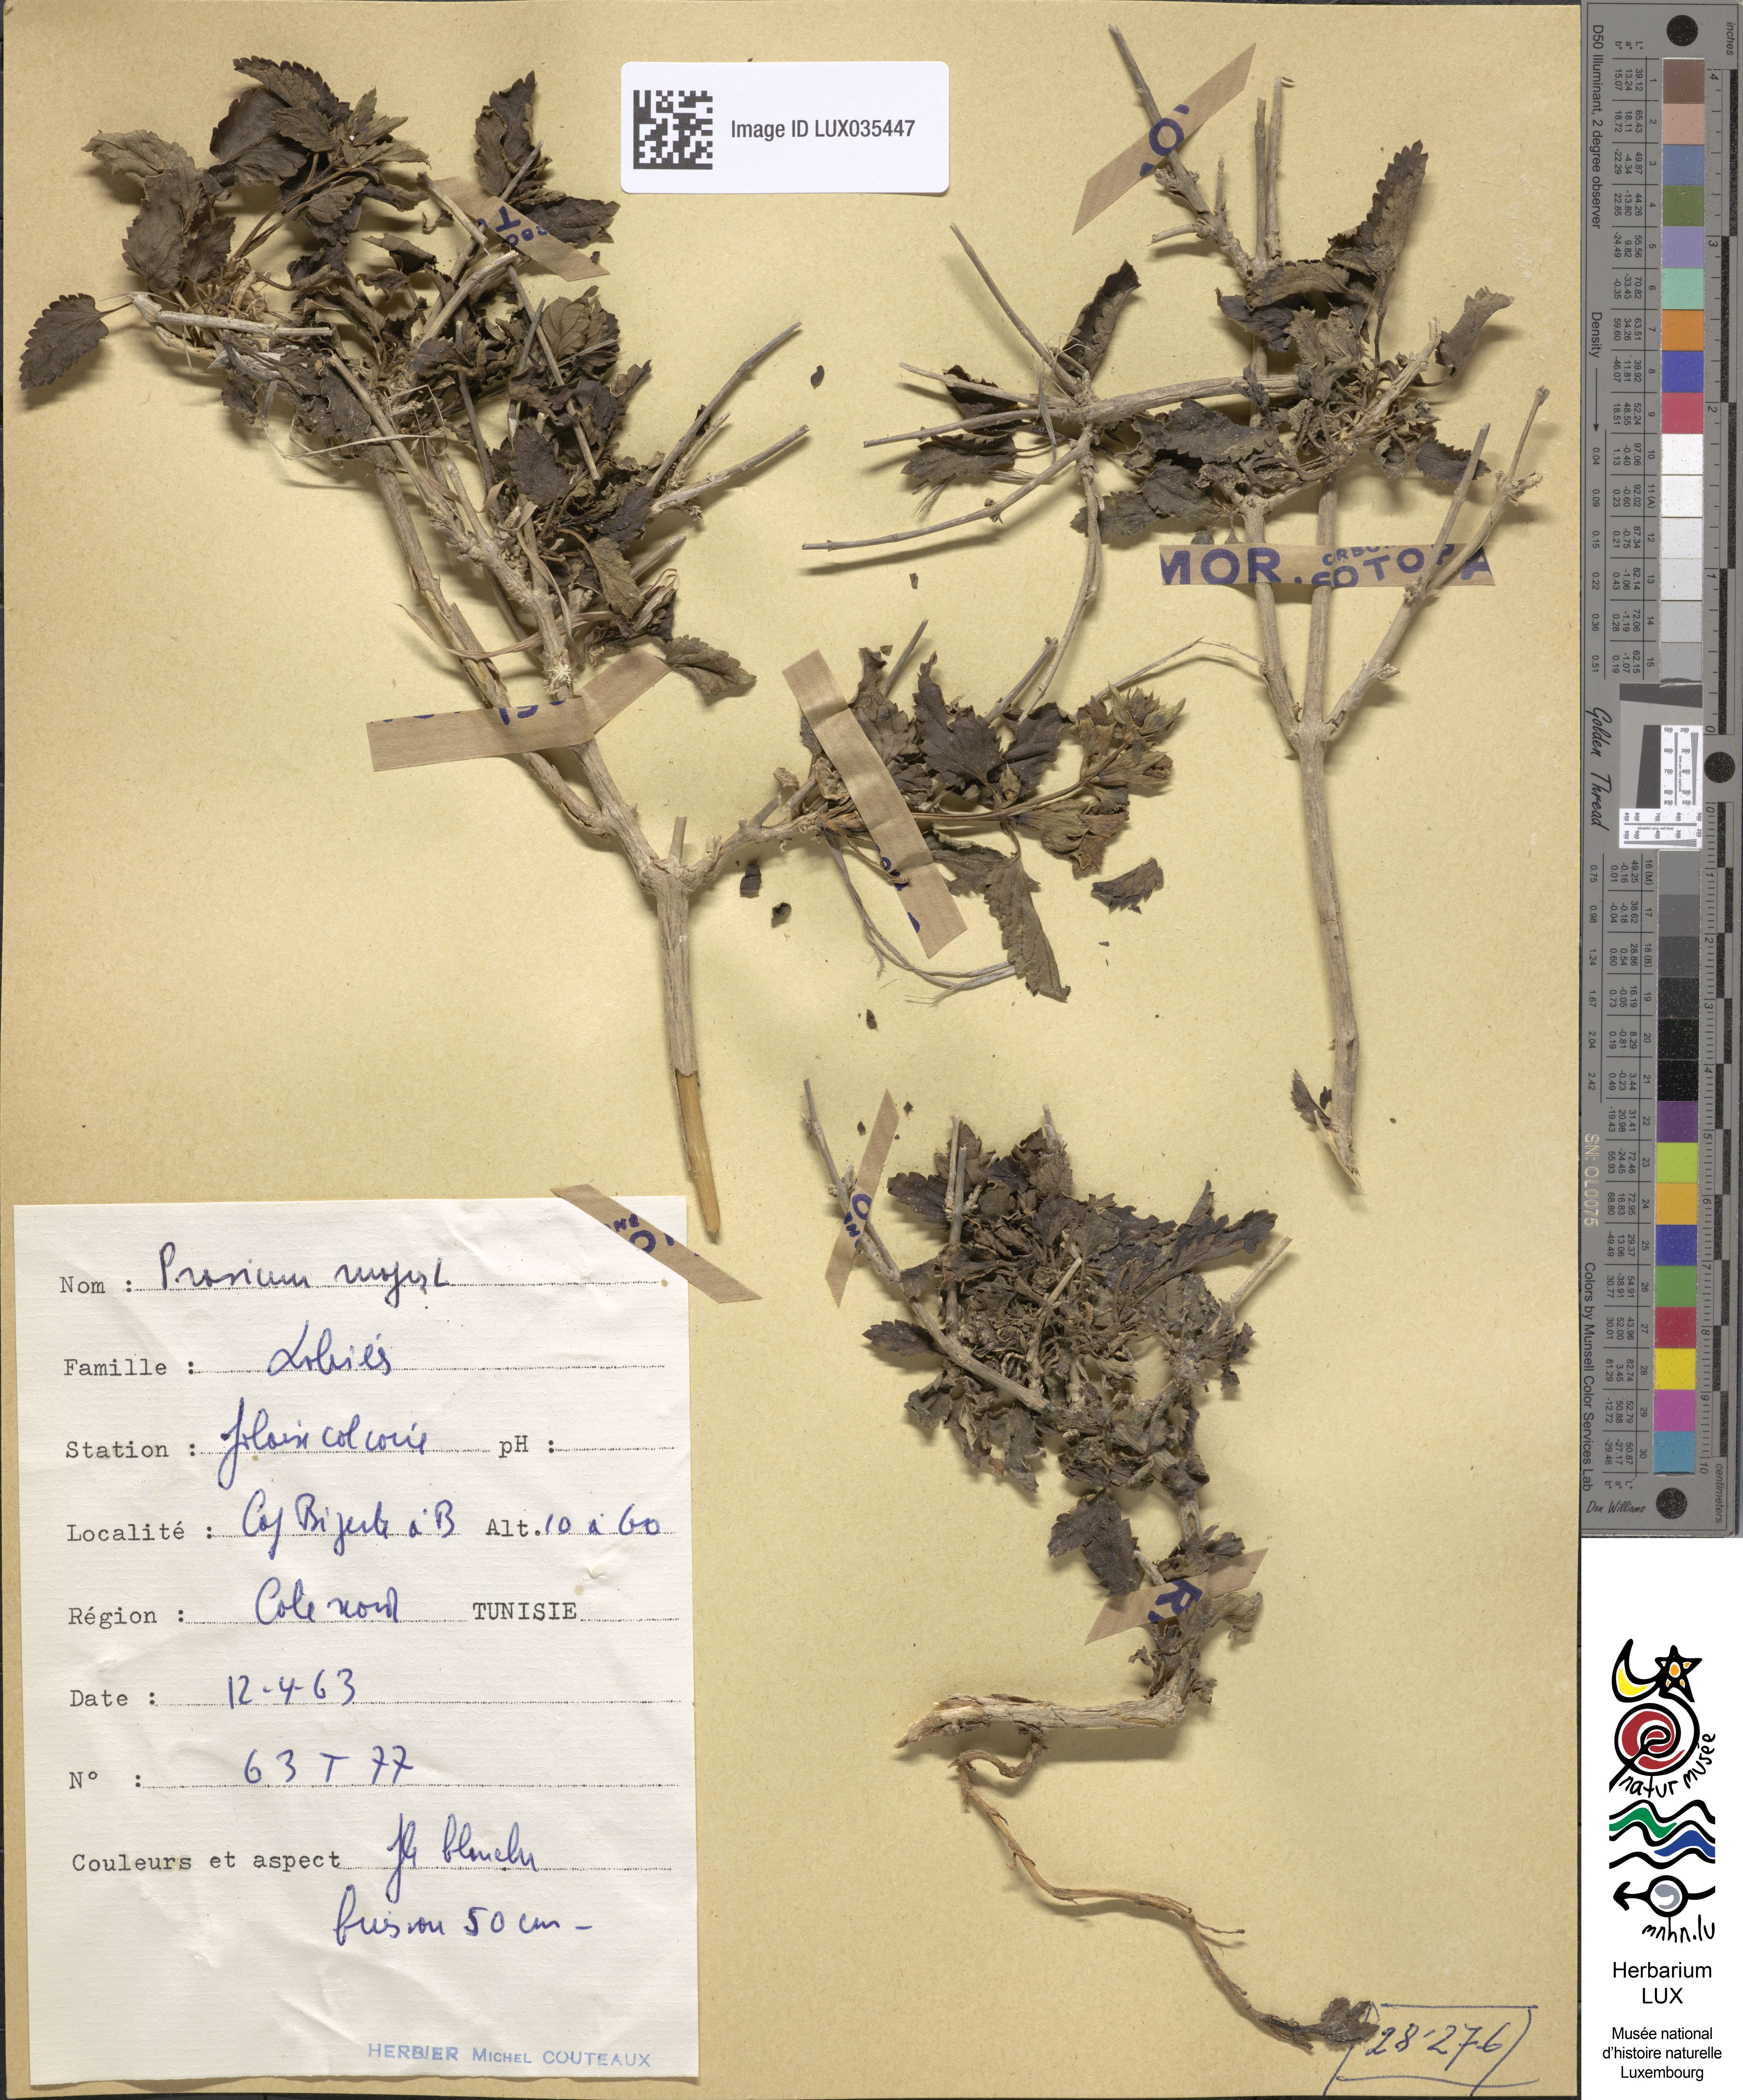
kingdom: Plantae
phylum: Tracheophyta
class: Magnoliopsida
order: Lamiales
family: Lamiaceae
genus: Prasium
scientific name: Prasium majus
